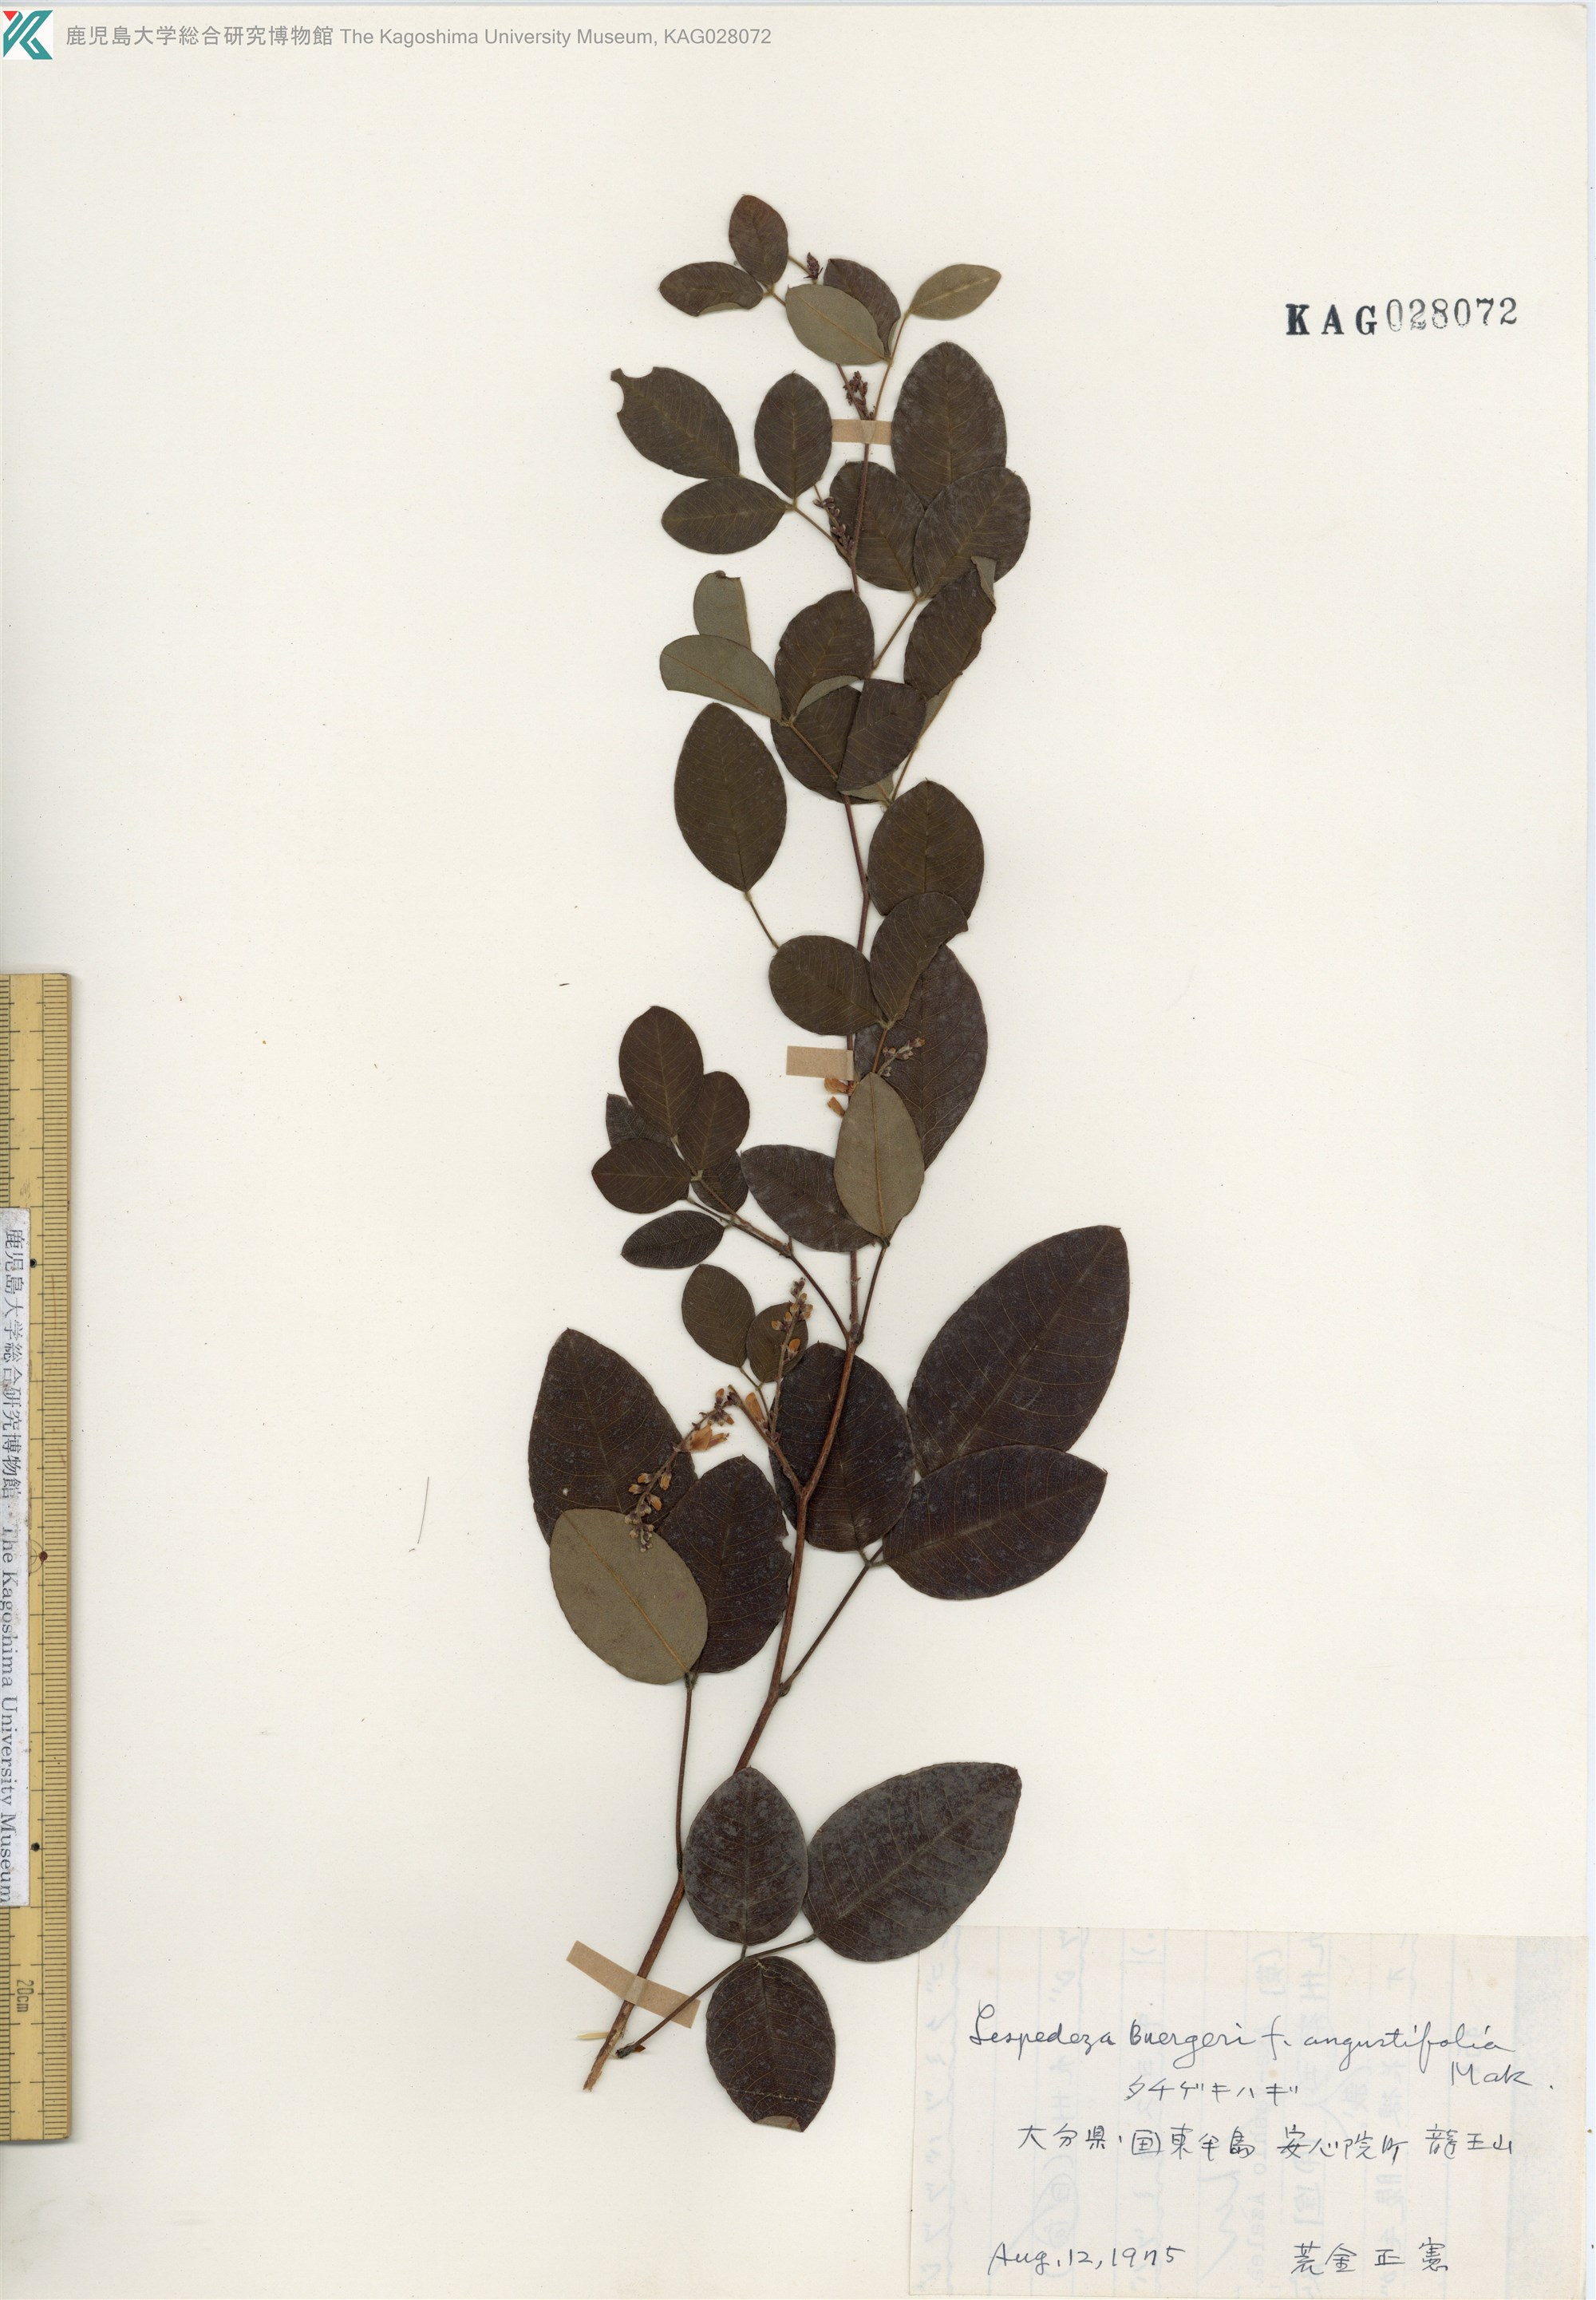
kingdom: Plantae
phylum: Tracheophyta
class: Magnoliopsida
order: Fabales
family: Fabaceae
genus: Lespedeza
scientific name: Lespedeza buergeri
